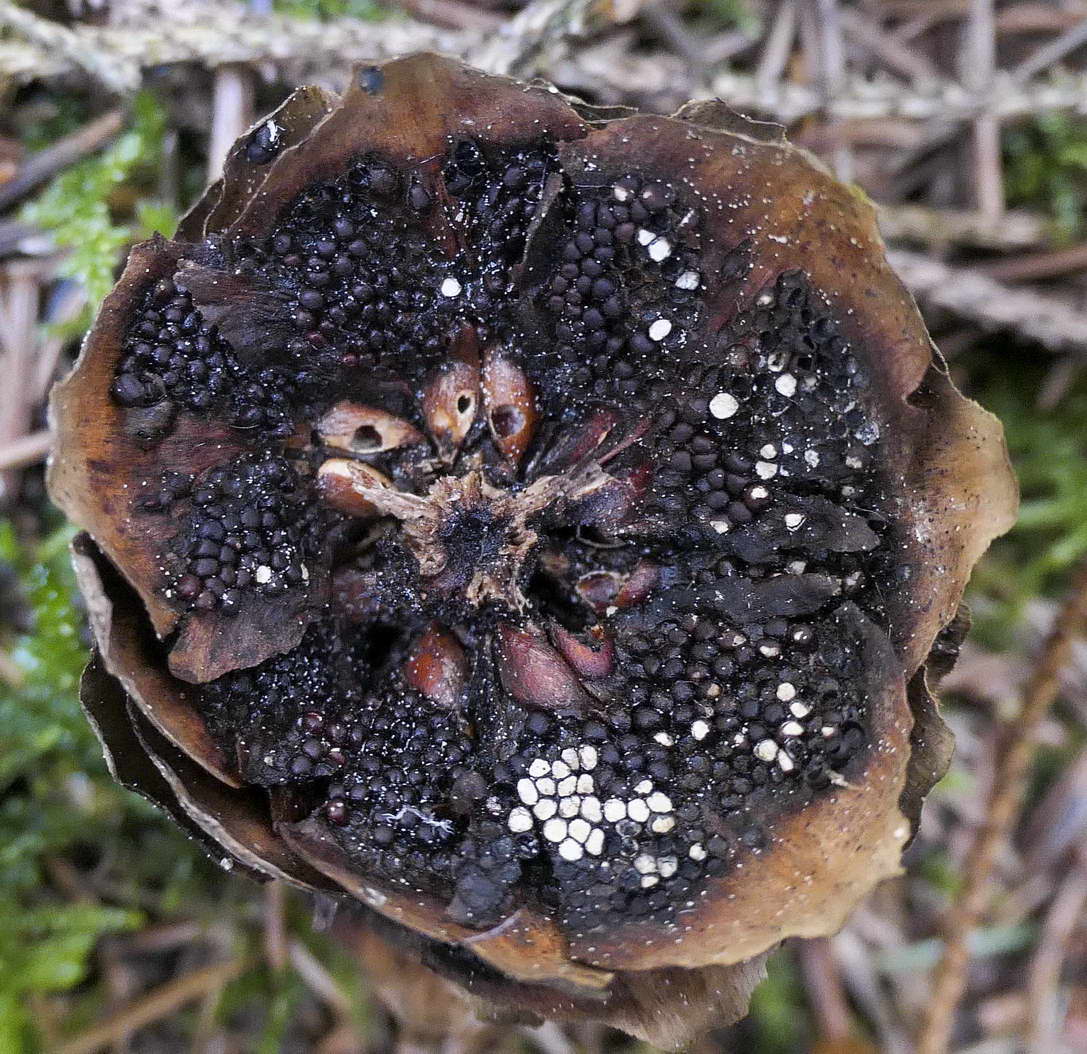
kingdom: Fungi
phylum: Basidiomycota
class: Pucciniomycetes
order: Pucciniales
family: Pucciniastraceae
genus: Thekopsora
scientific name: Thekopsora areolata
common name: grankogle-nålerust
